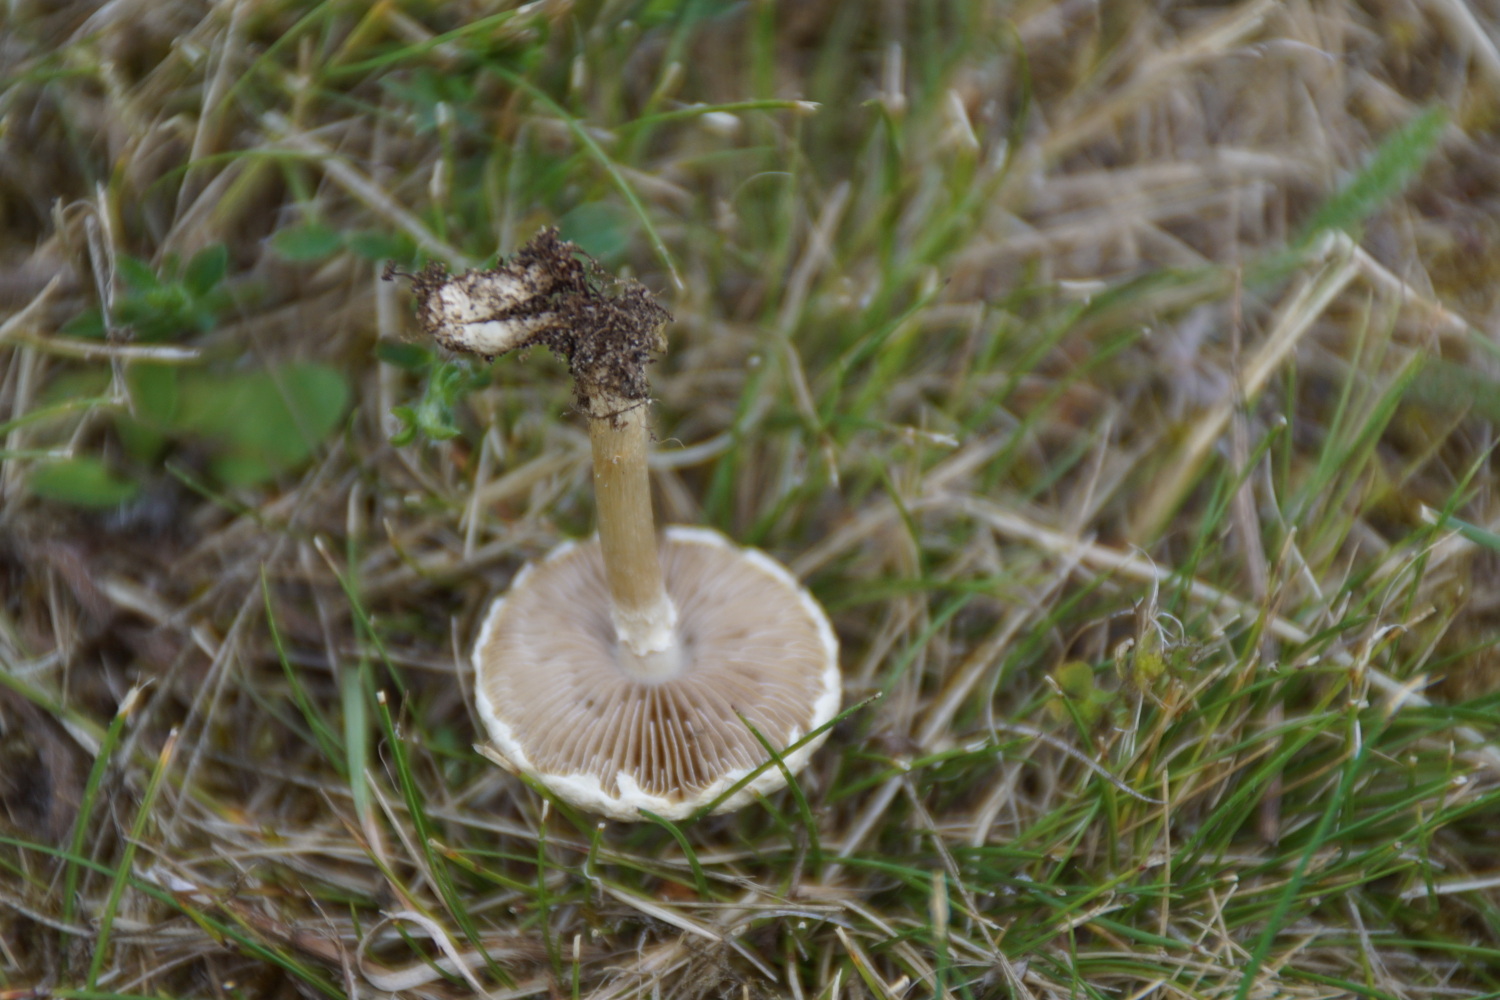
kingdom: Fungi
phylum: Basidiomycota
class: Agaricomycetes
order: Agaricales
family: Strophariaceae
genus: Agrocybe
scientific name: Agrocybe dura
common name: fastkødet agerhat
